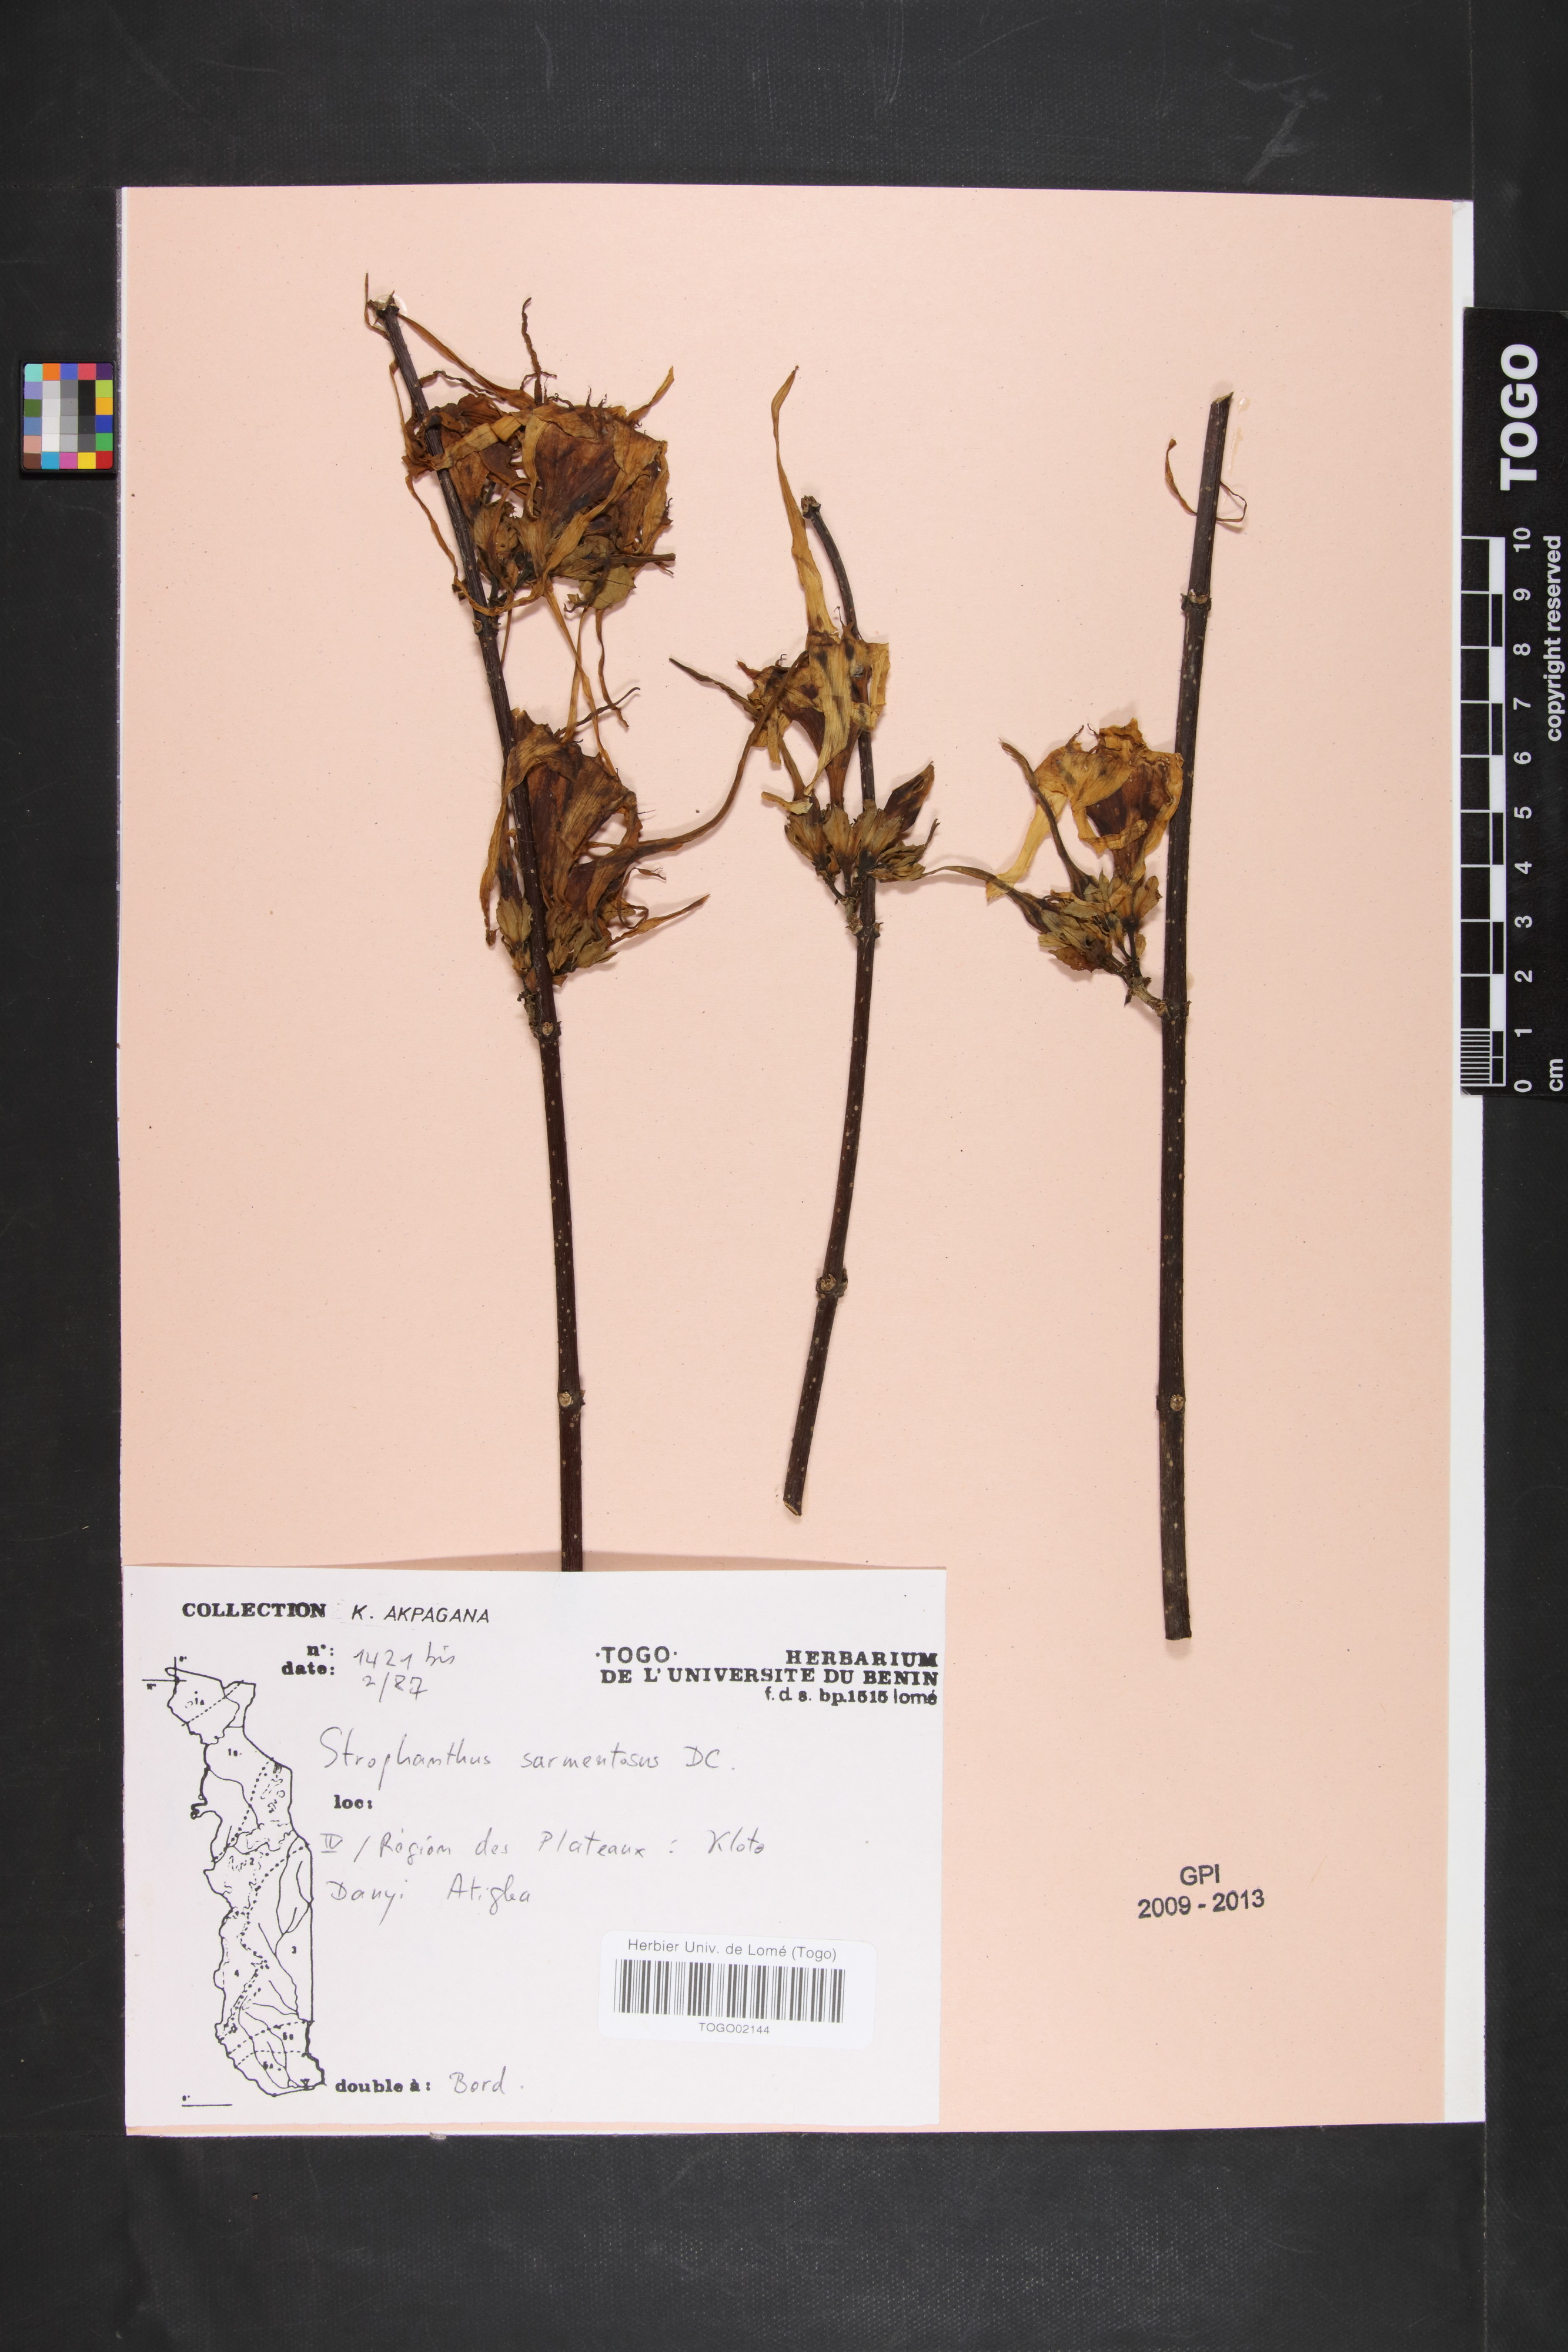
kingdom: Plantae
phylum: Tracheophyta
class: Magnoliopsida
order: Gentianales
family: Apocynaceae
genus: Strophanthus
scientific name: Strophanthus sarmentosus
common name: Poison arrowvine
